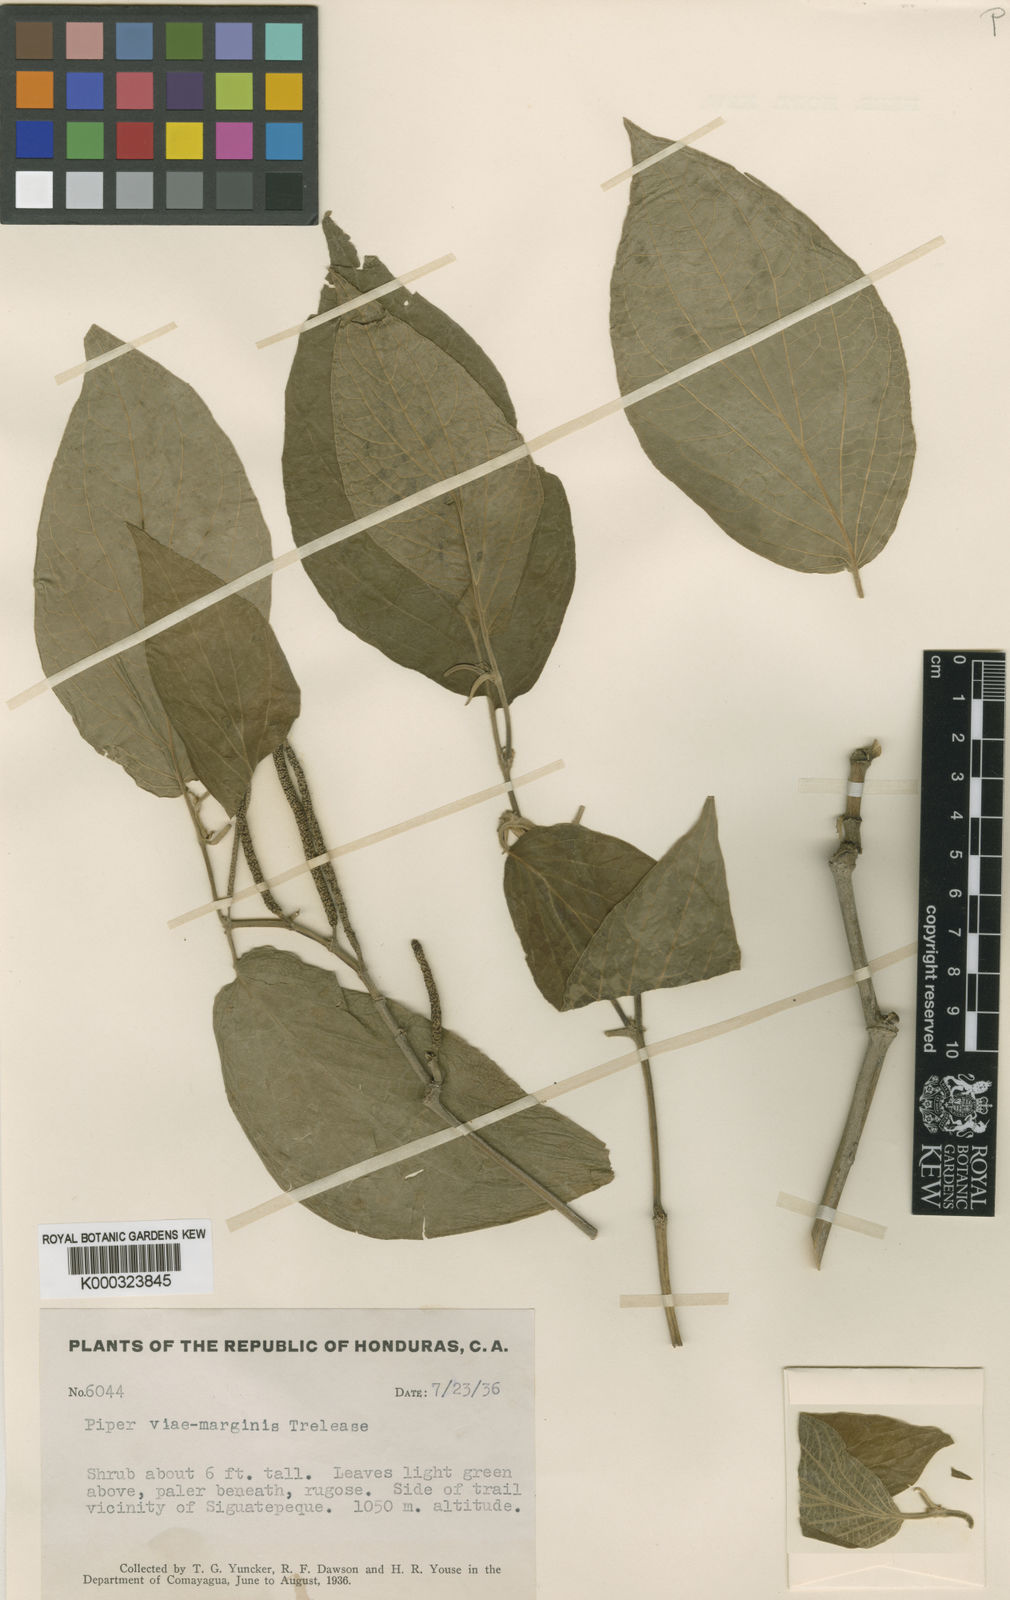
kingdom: Plantae
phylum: Tracheophyta
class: Magnoliopsida
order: Piperales
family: Piperaceae
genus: Piper
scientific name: Piper pseudofuligineum
